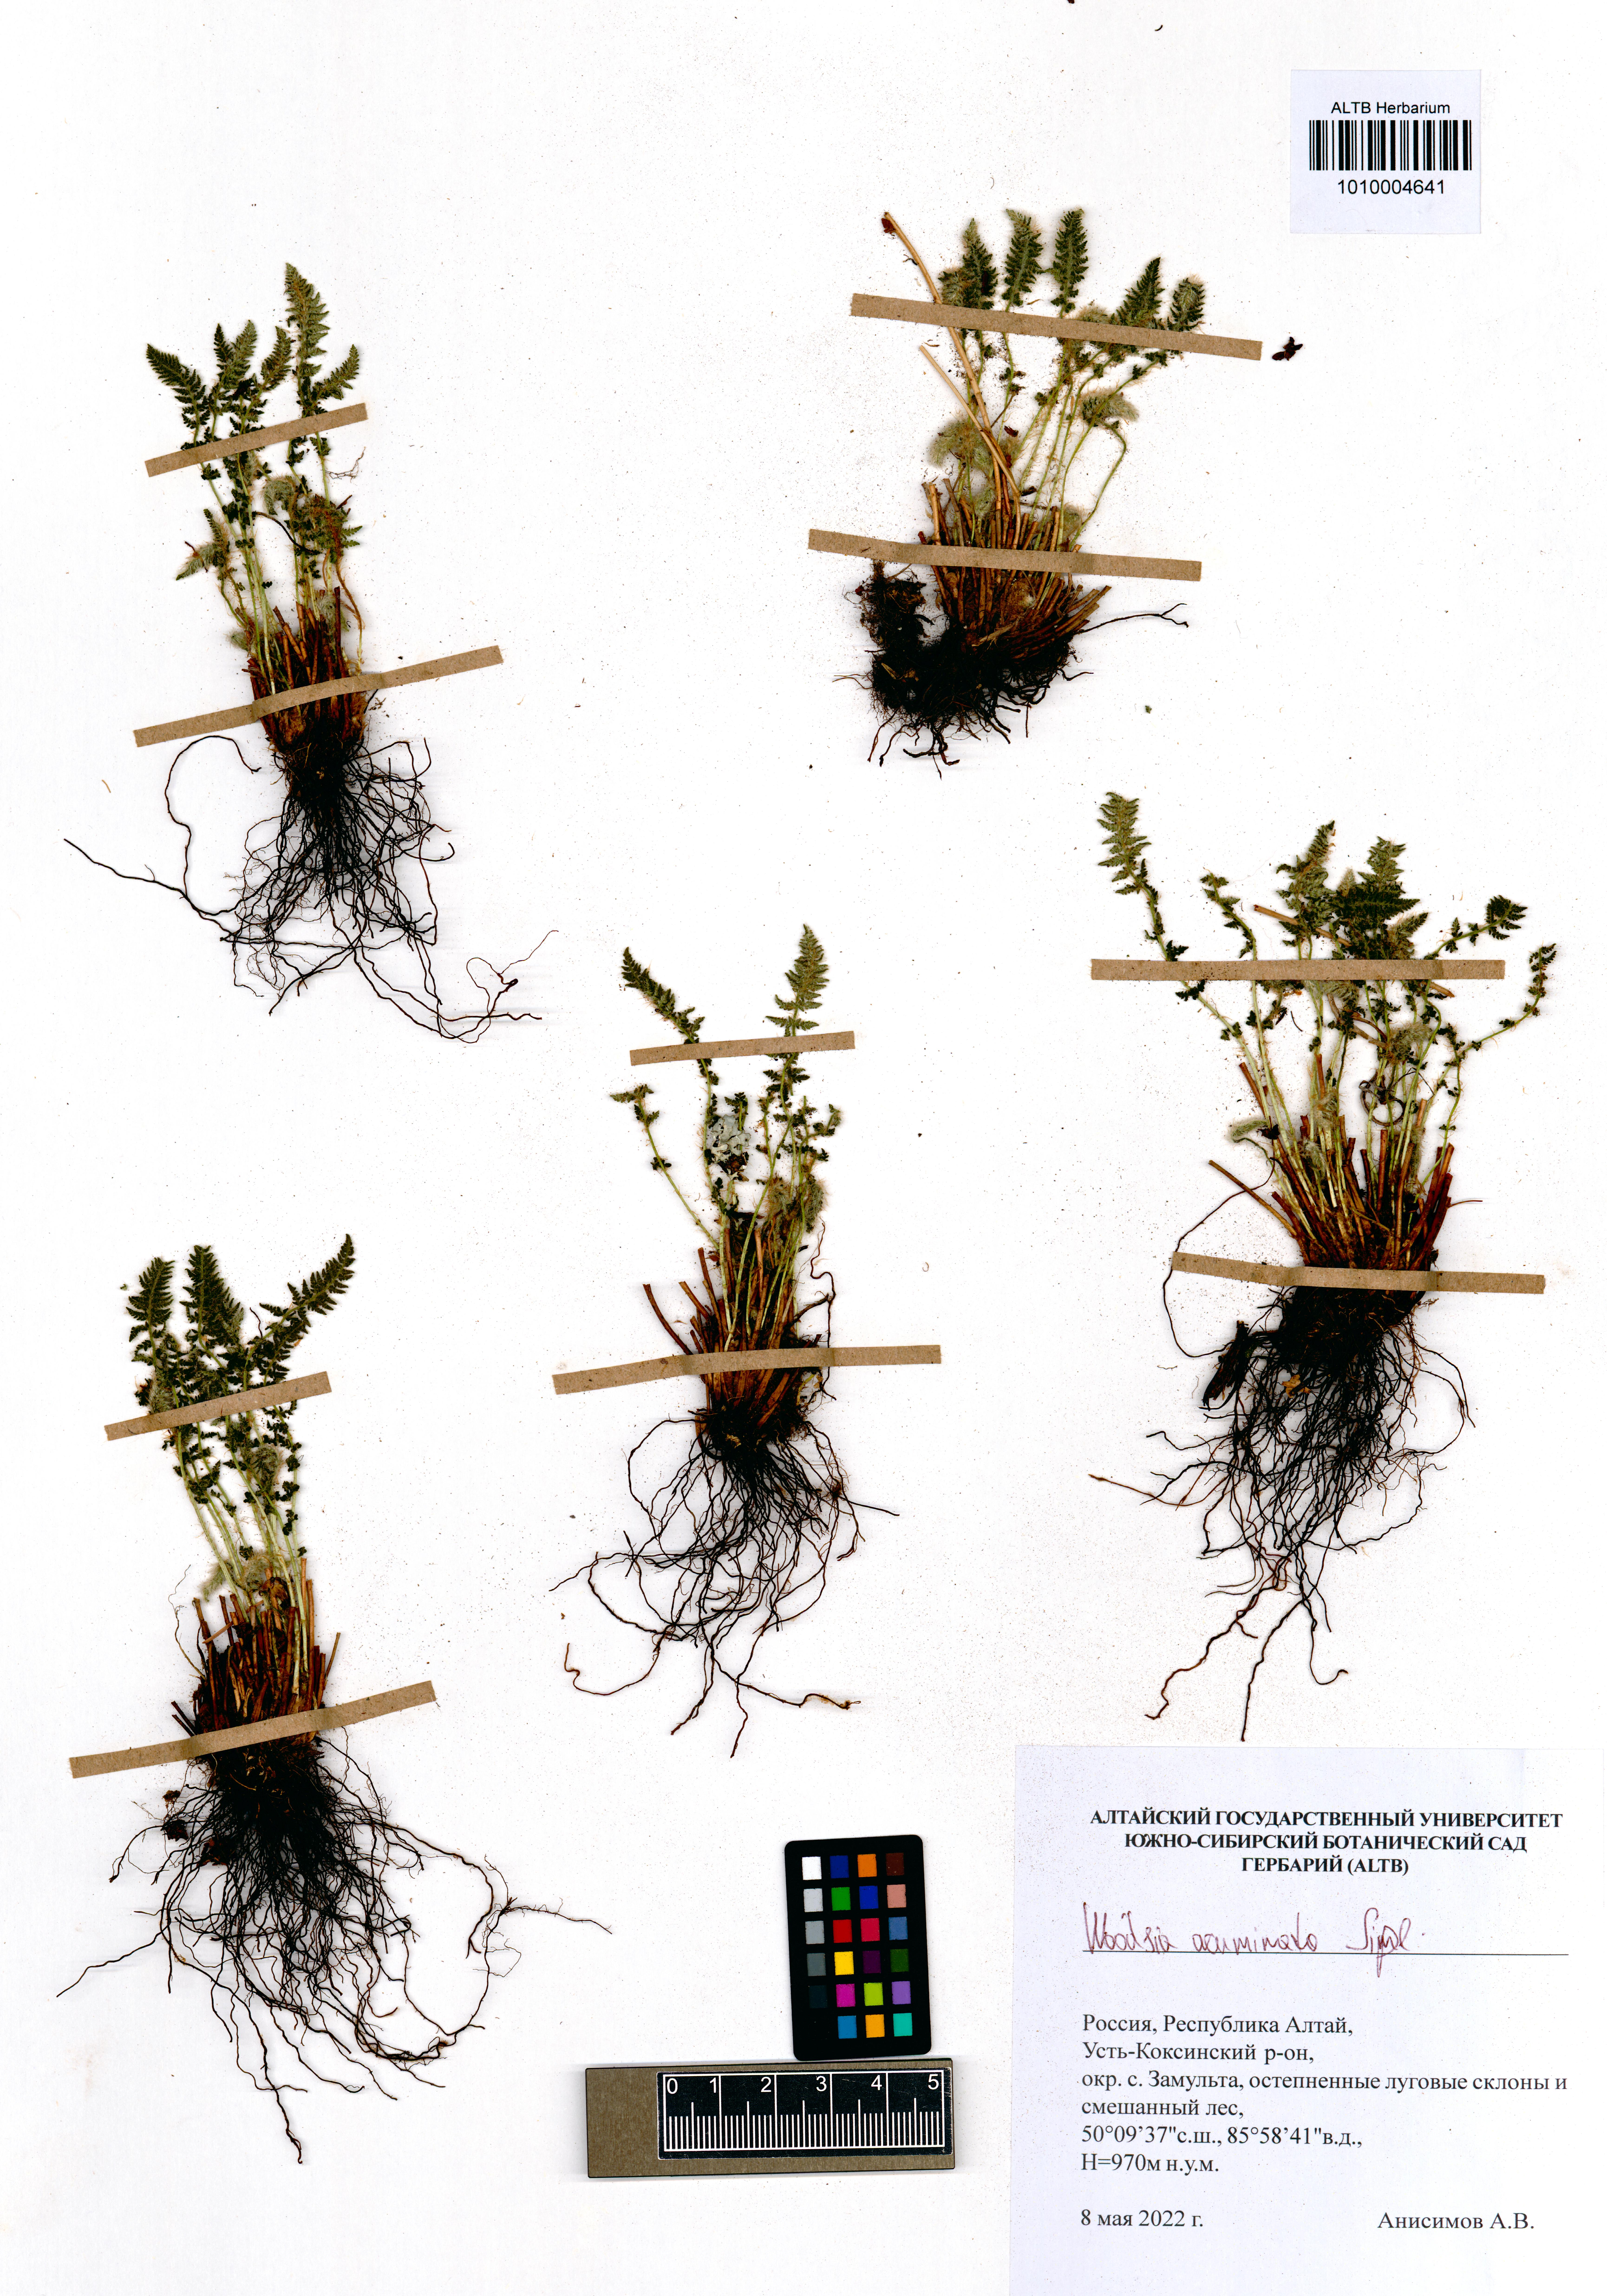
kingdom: Plantae
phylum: Tracheophyta
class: Polypodiopsida
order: Polypodiales
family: Woodsiaceae
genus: Woodsia
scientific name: Woodsia ilvensis
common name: Fragrant woodsia
